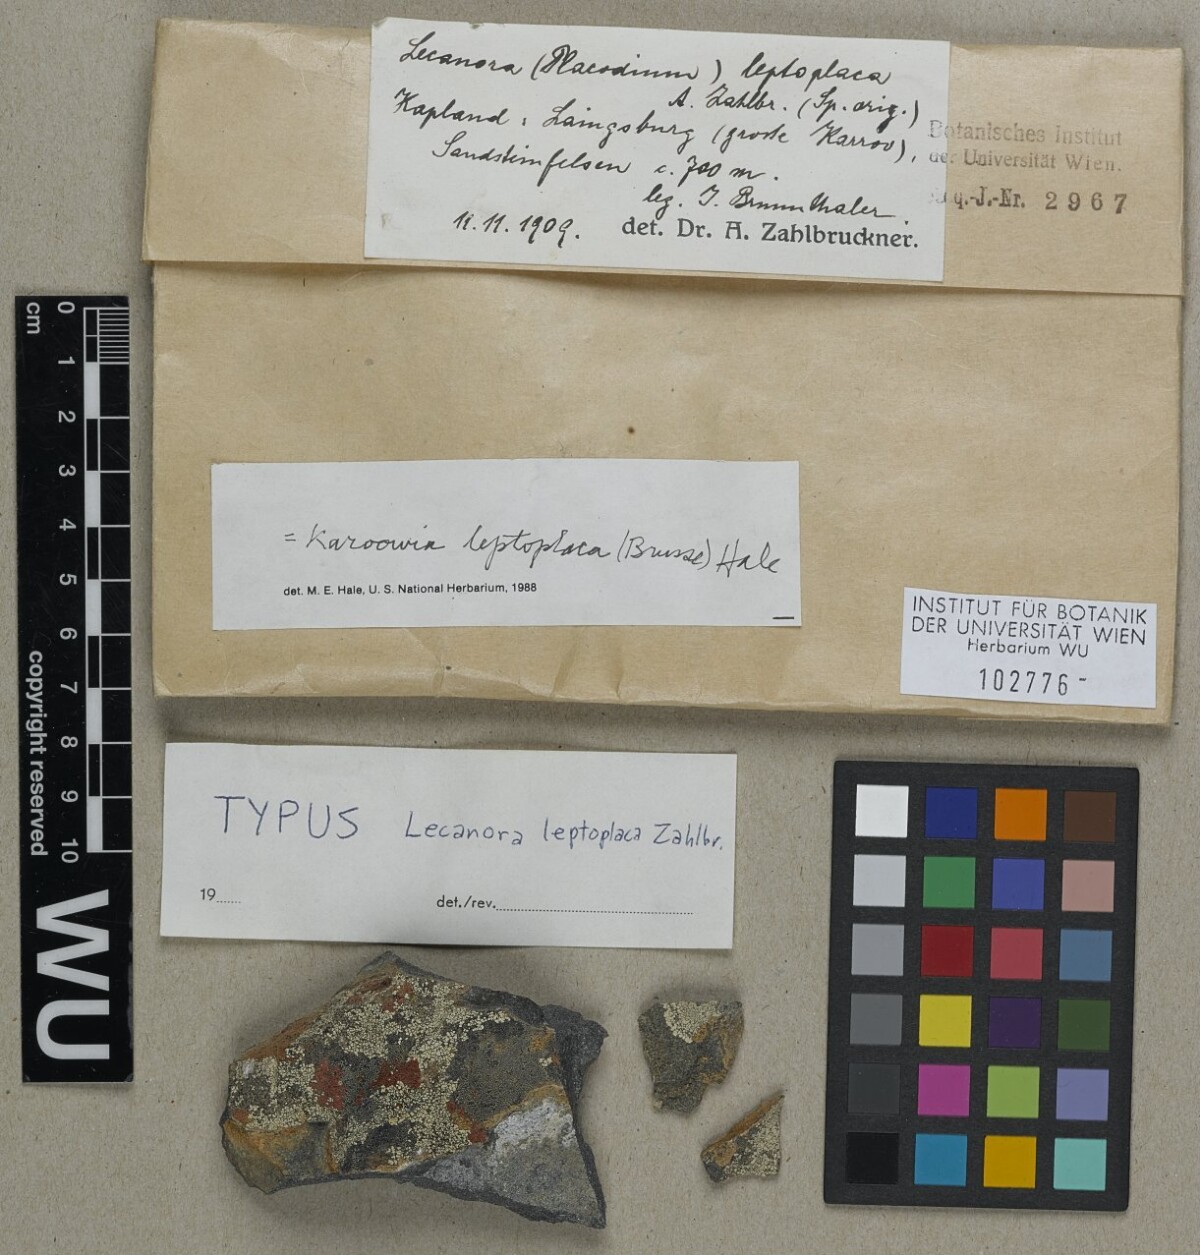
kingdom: Fungi
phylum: Ascomycota
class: Lecanoromycetes
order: Lecanorales
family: Lecanoraceae
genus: Lecanora
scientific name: Lecanora leproplaca
